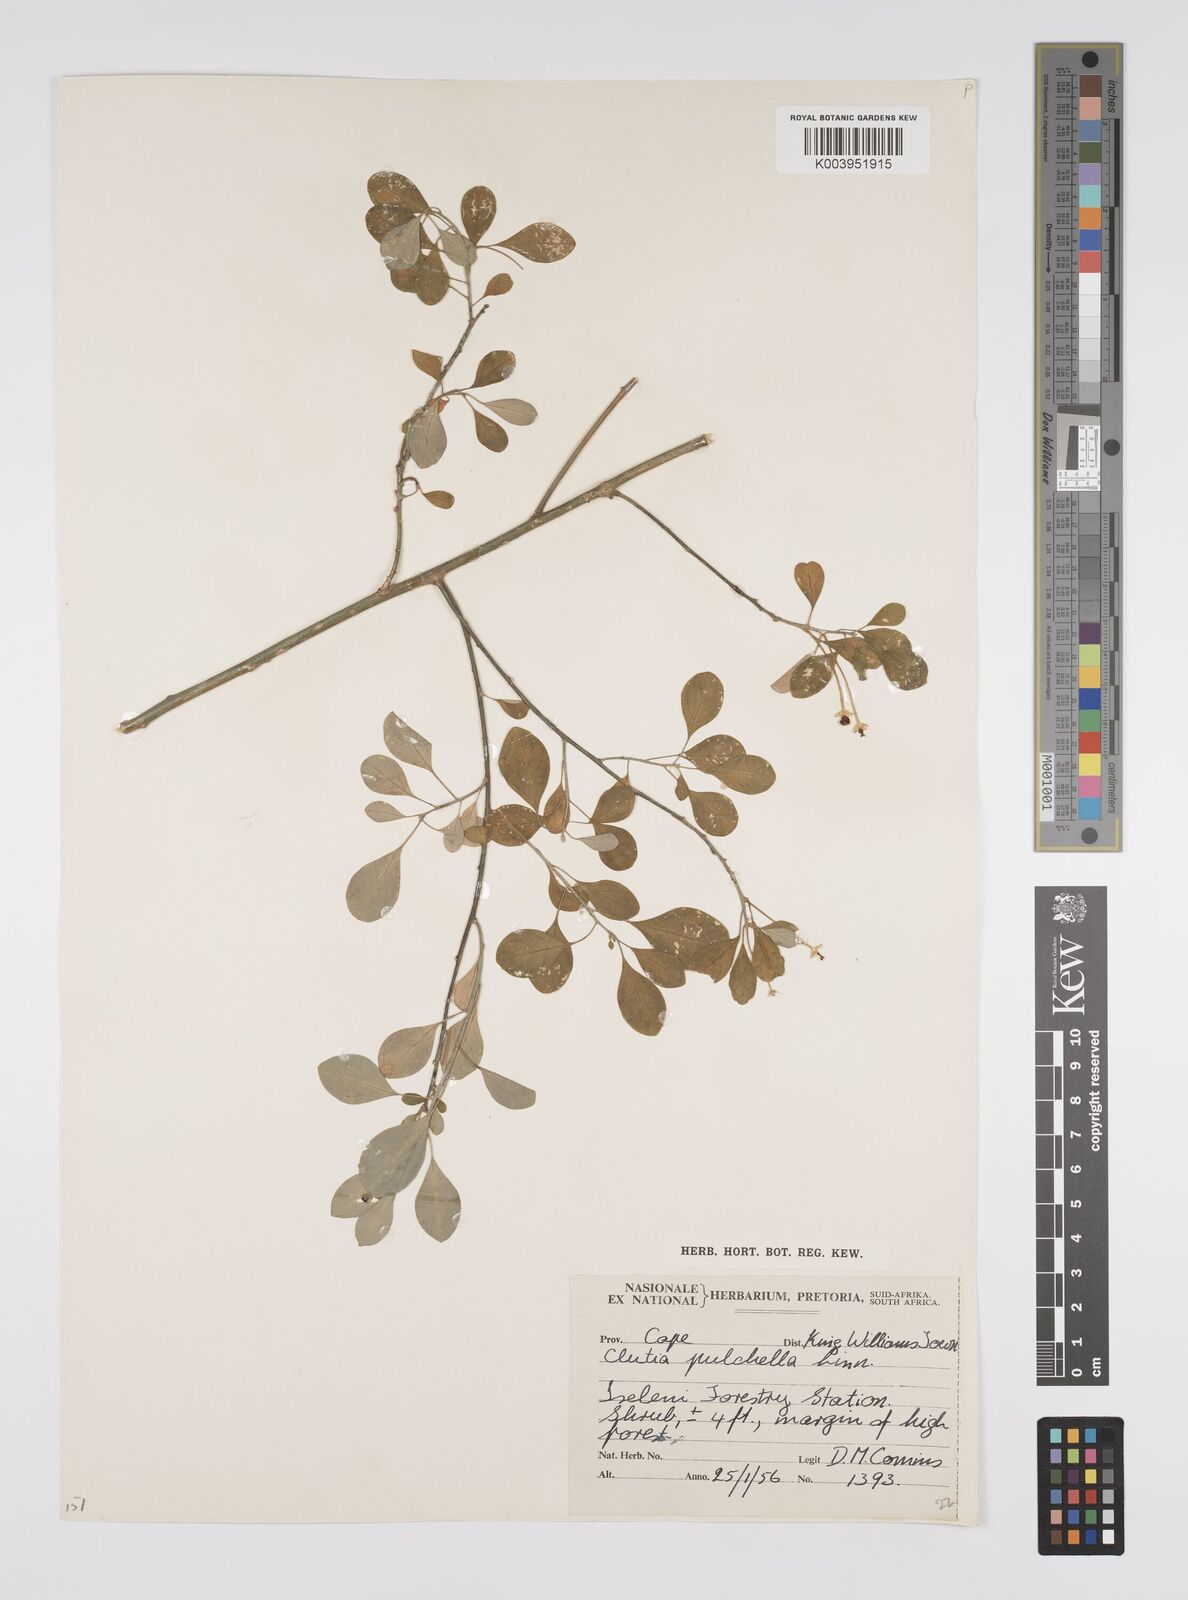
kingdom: Plantae
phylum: Tracheophyta
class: Magnoliopsida
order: Malpighiales
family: Peraceae
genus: Clutia
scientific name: Clutia pulchella
